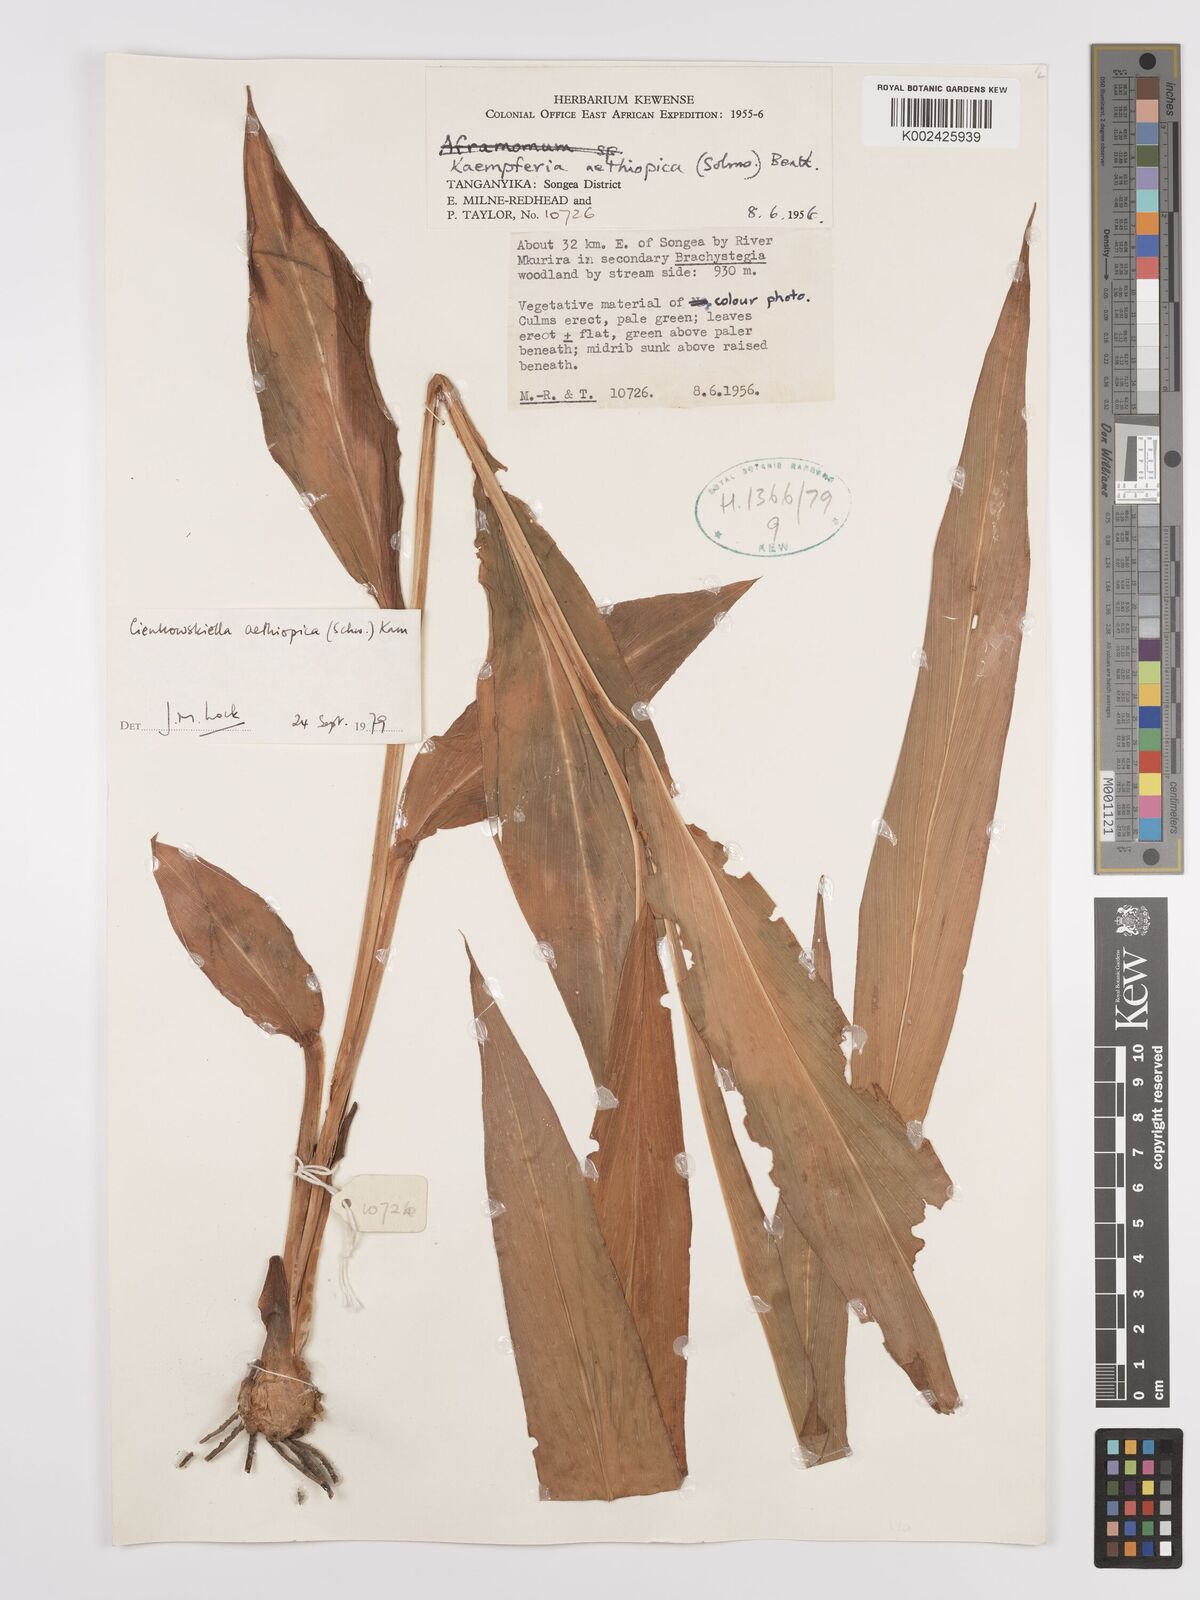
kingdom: Plantae
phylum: Tracheophyta
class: Liliopsida
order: Zingiberales
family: Zingiberaceae
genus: Siphonochilus
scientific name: Siphonochilus aethiopicus
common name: African-ginger
